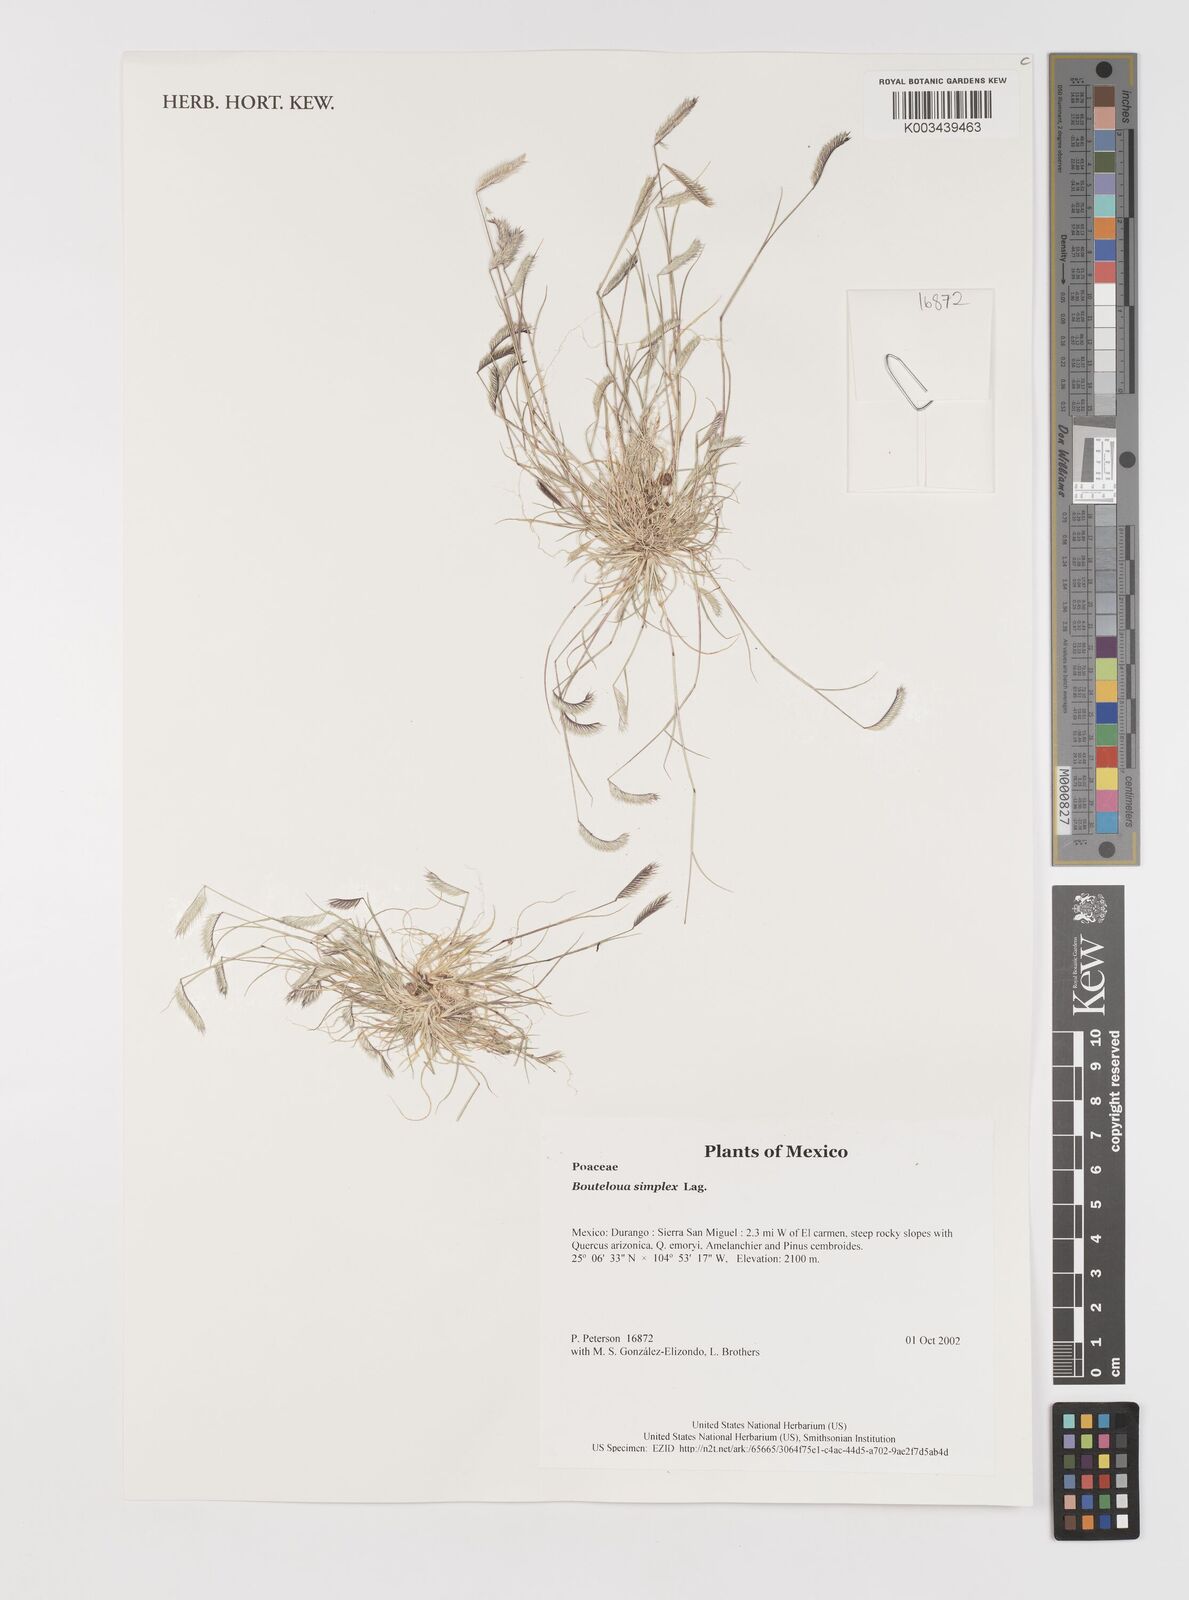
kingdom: Plantae
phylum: Tracheophyta
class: Liliopsida
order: Poales
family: Poaceae
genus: Bouteloua
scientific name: Bouteloua simplex
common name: Mat grama
